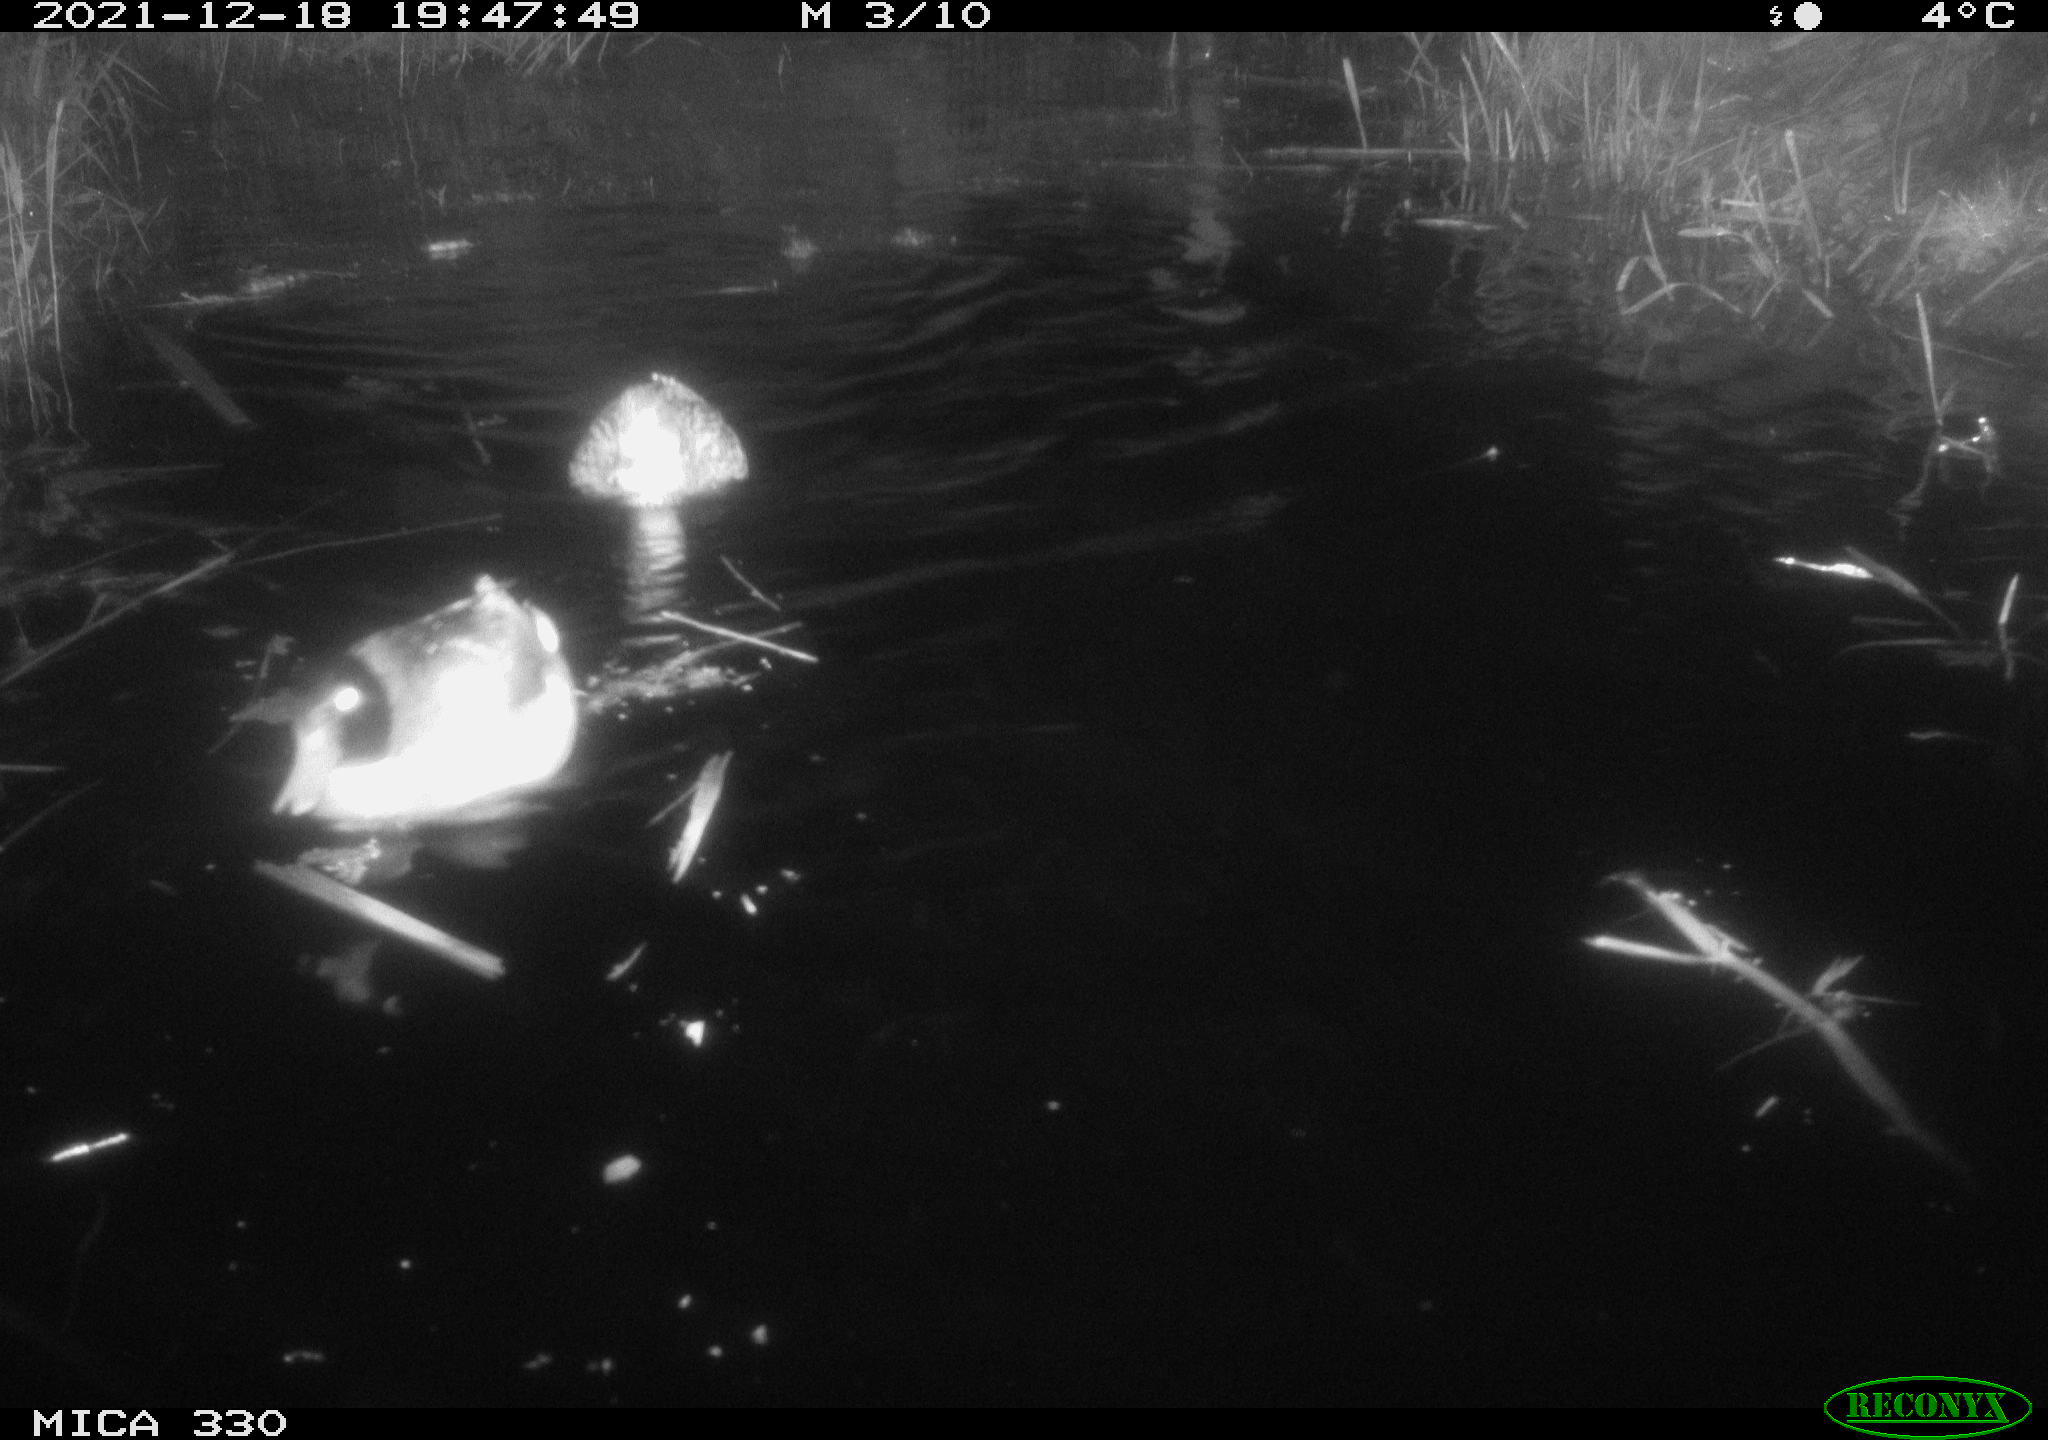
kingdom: Animalia
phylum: Chordata
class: Aves
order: Anseriformes
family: Anatidae
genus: Anas
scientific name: Anas platyrhynchos
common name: Mallard
